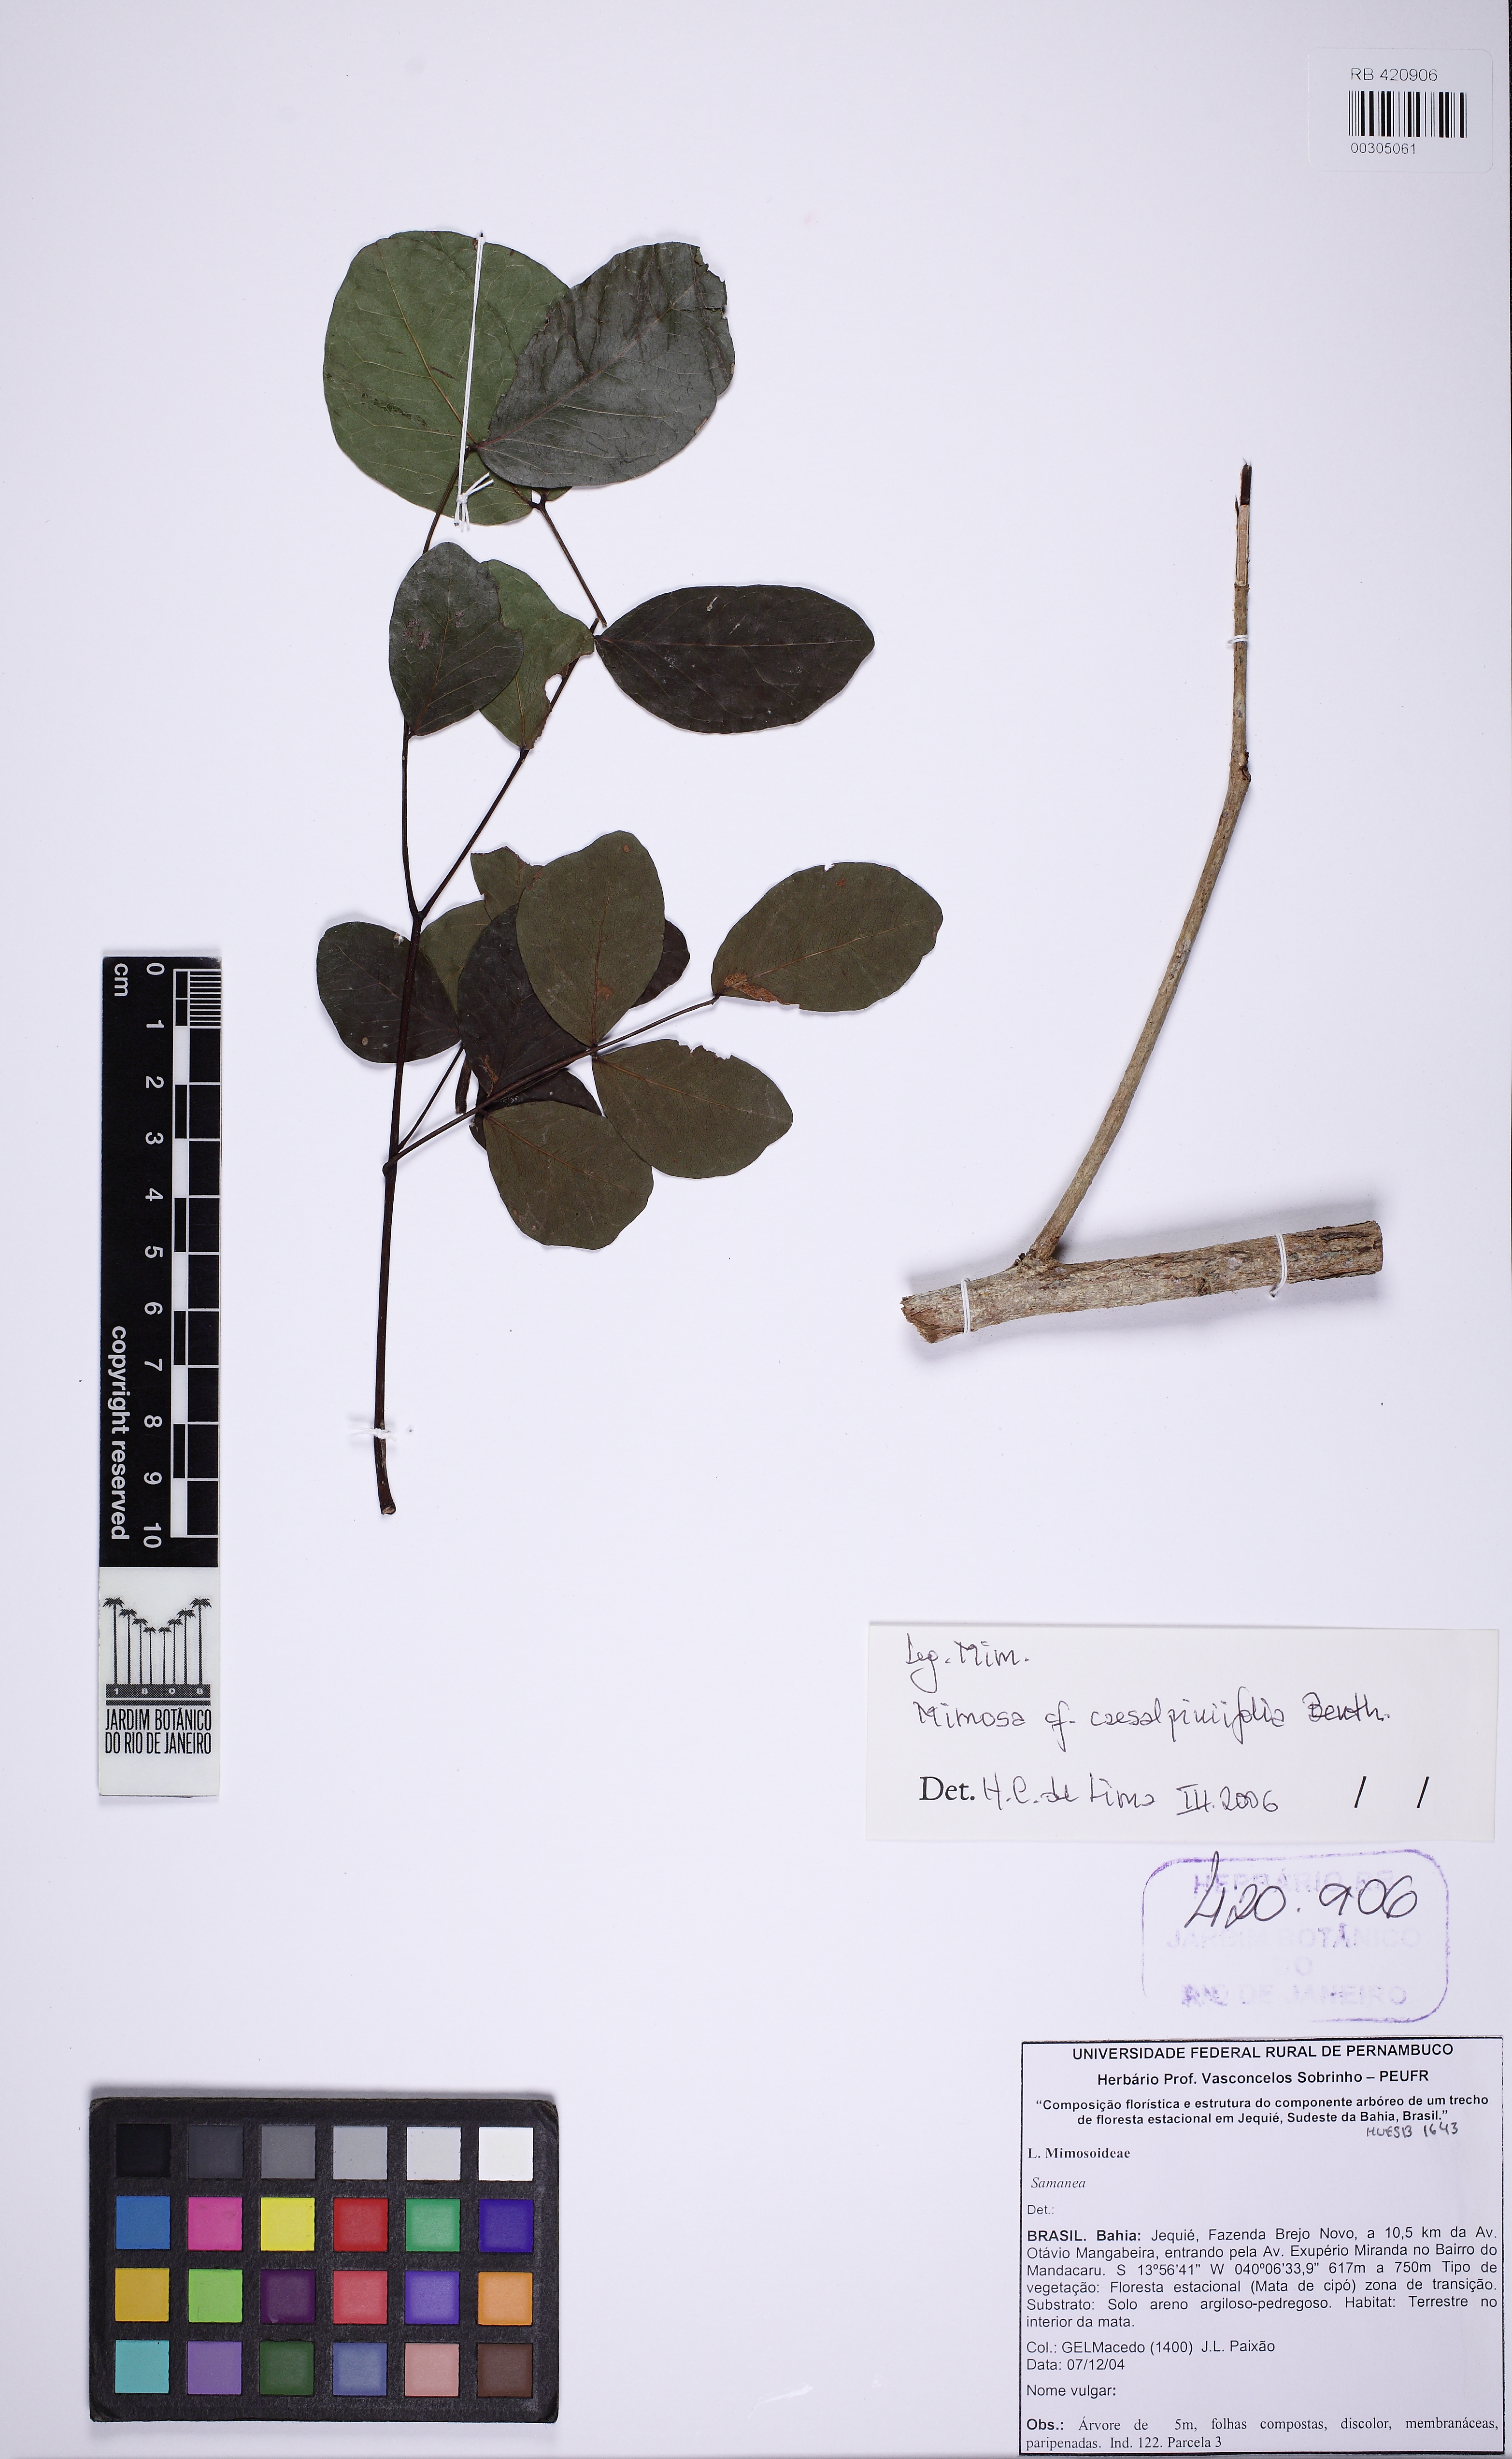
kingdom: Plantae
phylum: Tracheophyta
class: Magnoliopsida
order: Fabales
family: Fabaceae
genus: Mimosa
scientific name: Mimosa caesalpiniifolia
